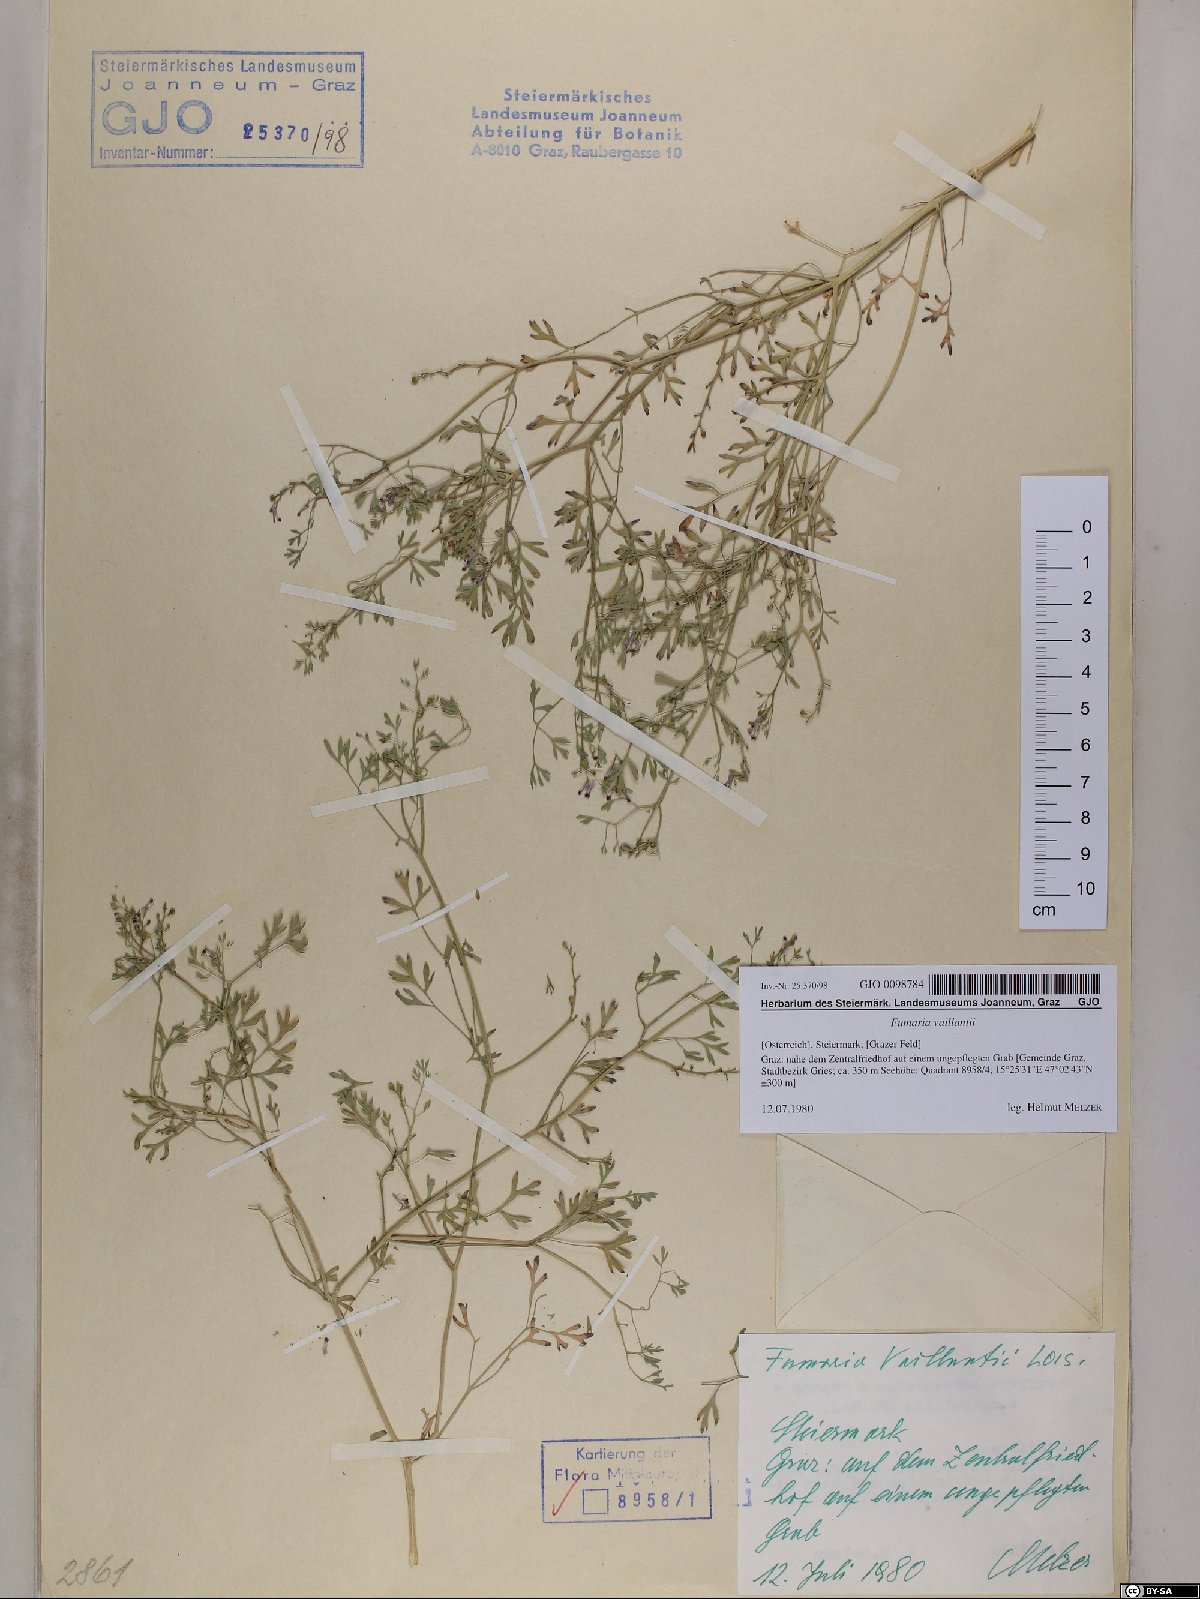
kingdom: Plantae
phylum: Tracheophyta
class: Magnoliopsida
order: Ranunculales
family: Papaveraceae
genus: Fumaria
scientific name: Fumaria vaillantii
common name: Few-flowered fumitory
